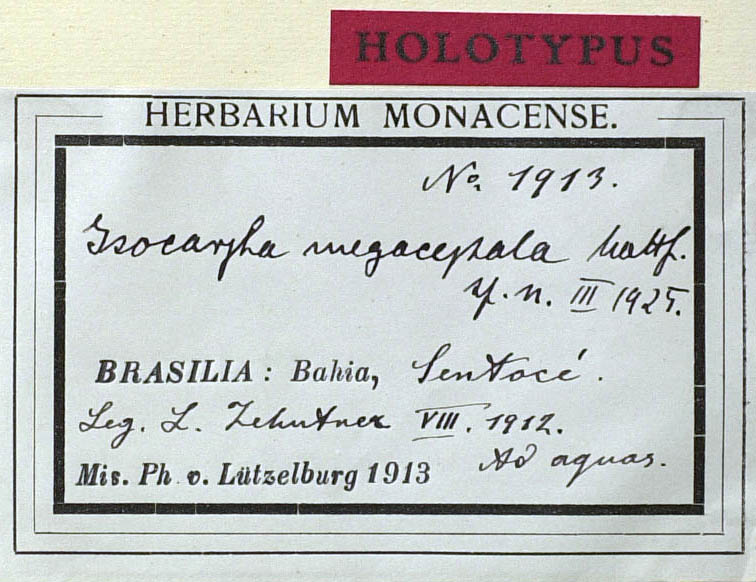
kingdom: Plantae
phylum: Tracheophyta
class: Magnoliopsida
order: Asterales
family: Asteraceae
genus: Isocarpha
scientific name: Isocarpha megacephala
